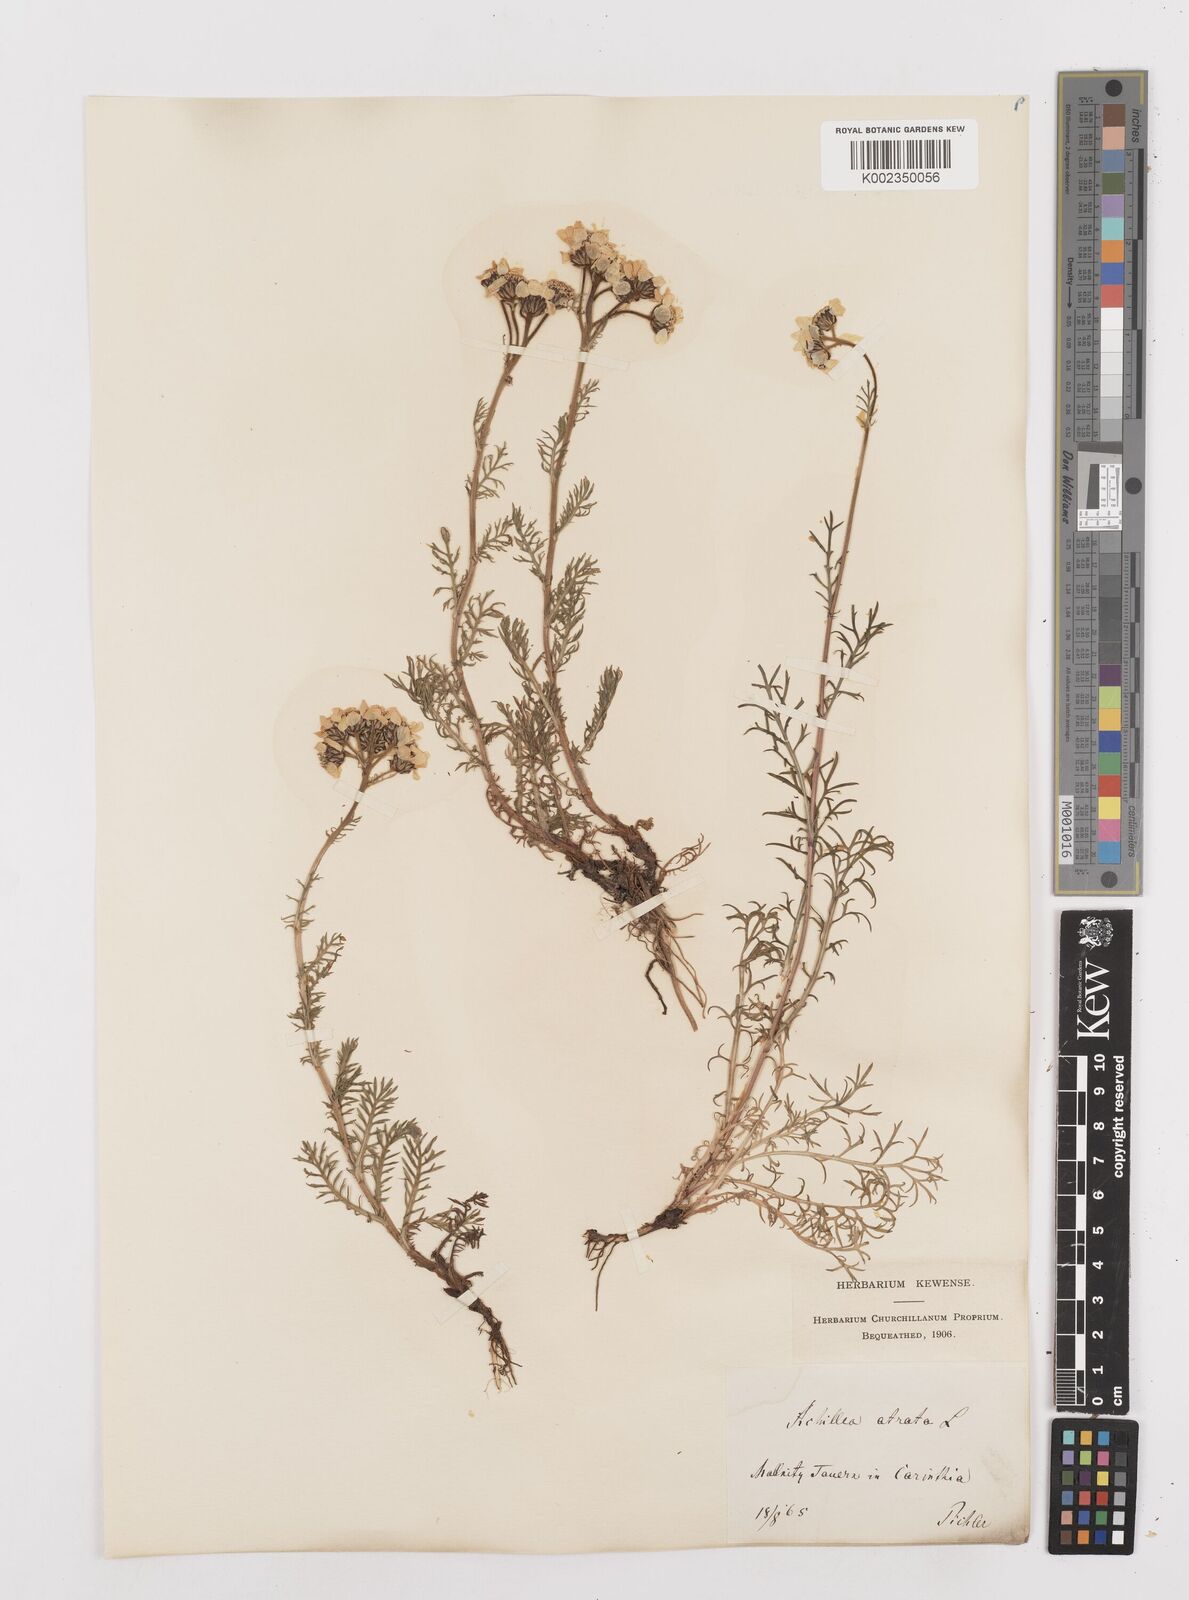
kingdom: Plantae
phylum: Tracheophyta
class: Magnoliopsida
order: Asterales
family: Asteraceae
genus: Achillea
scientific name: Achillea atrata
